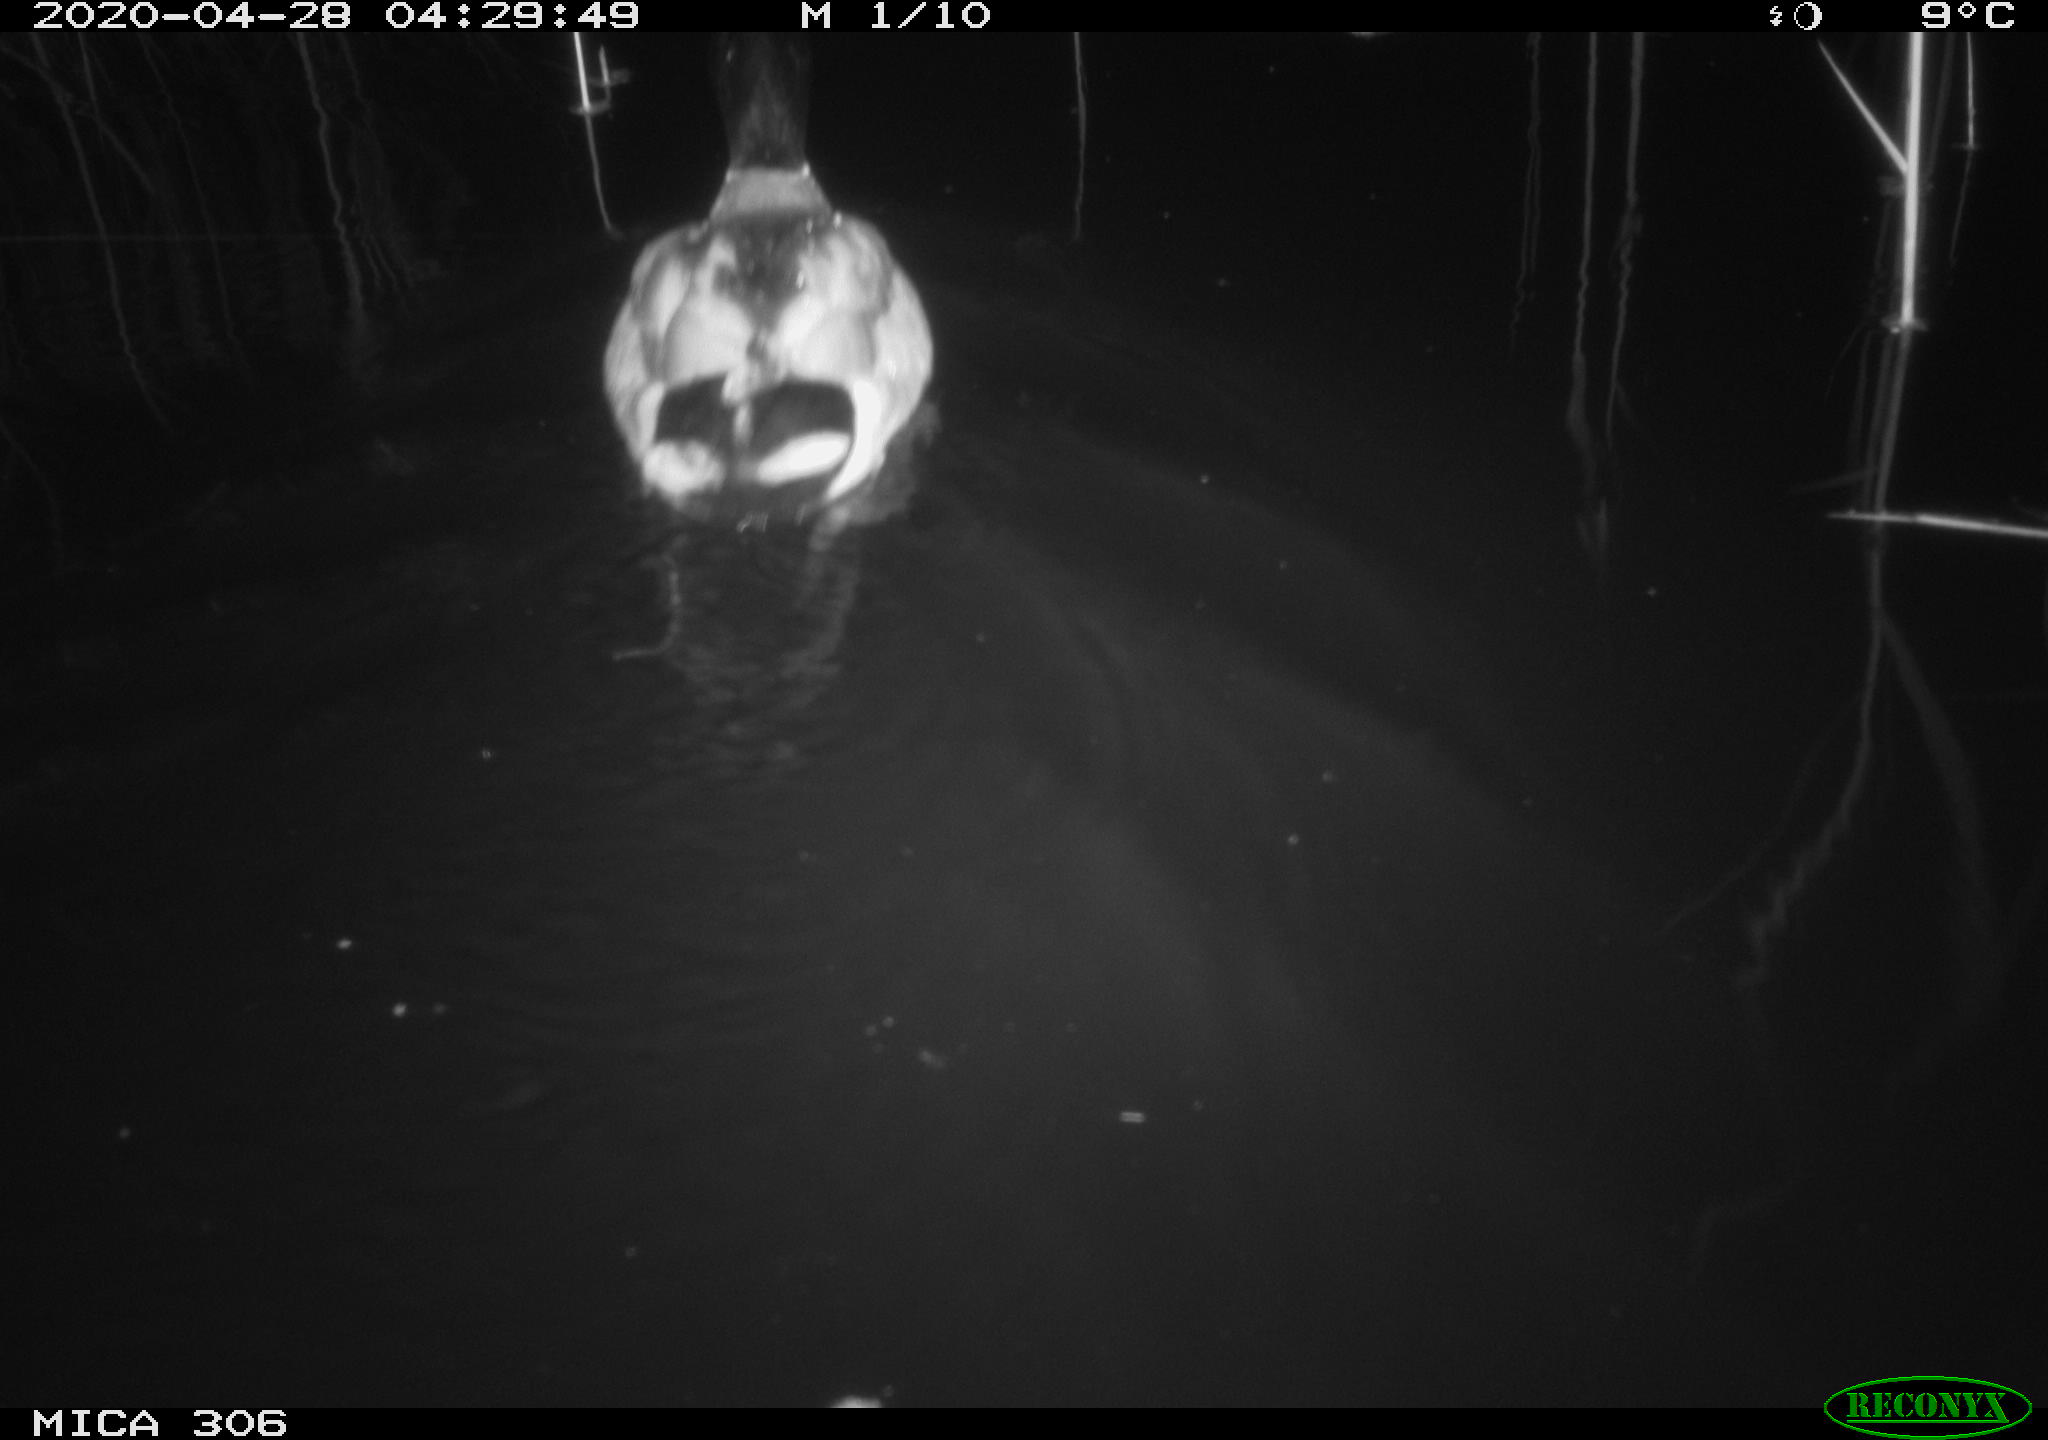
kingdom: Animalia
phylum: Chordata
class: Aves
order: Anseriformes
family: Anatidae
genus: Anas
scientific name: Anas platyrhynchos
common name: Mallard
